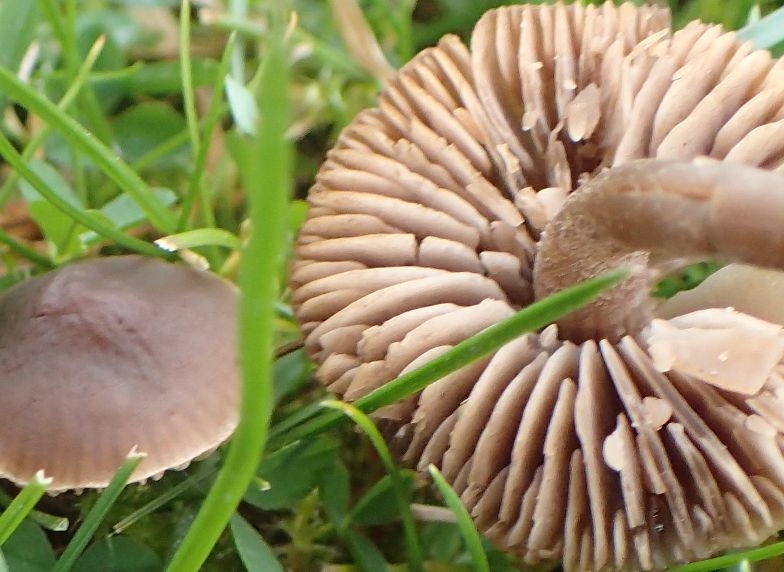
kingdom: Fungi
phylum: Basidiomycota
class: Agaricomycetes
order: Agaricales
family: Tricholomataceae
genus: Dermoloma
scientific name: Dermoloma pseudocuneifolium
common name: mark-nonnehat
